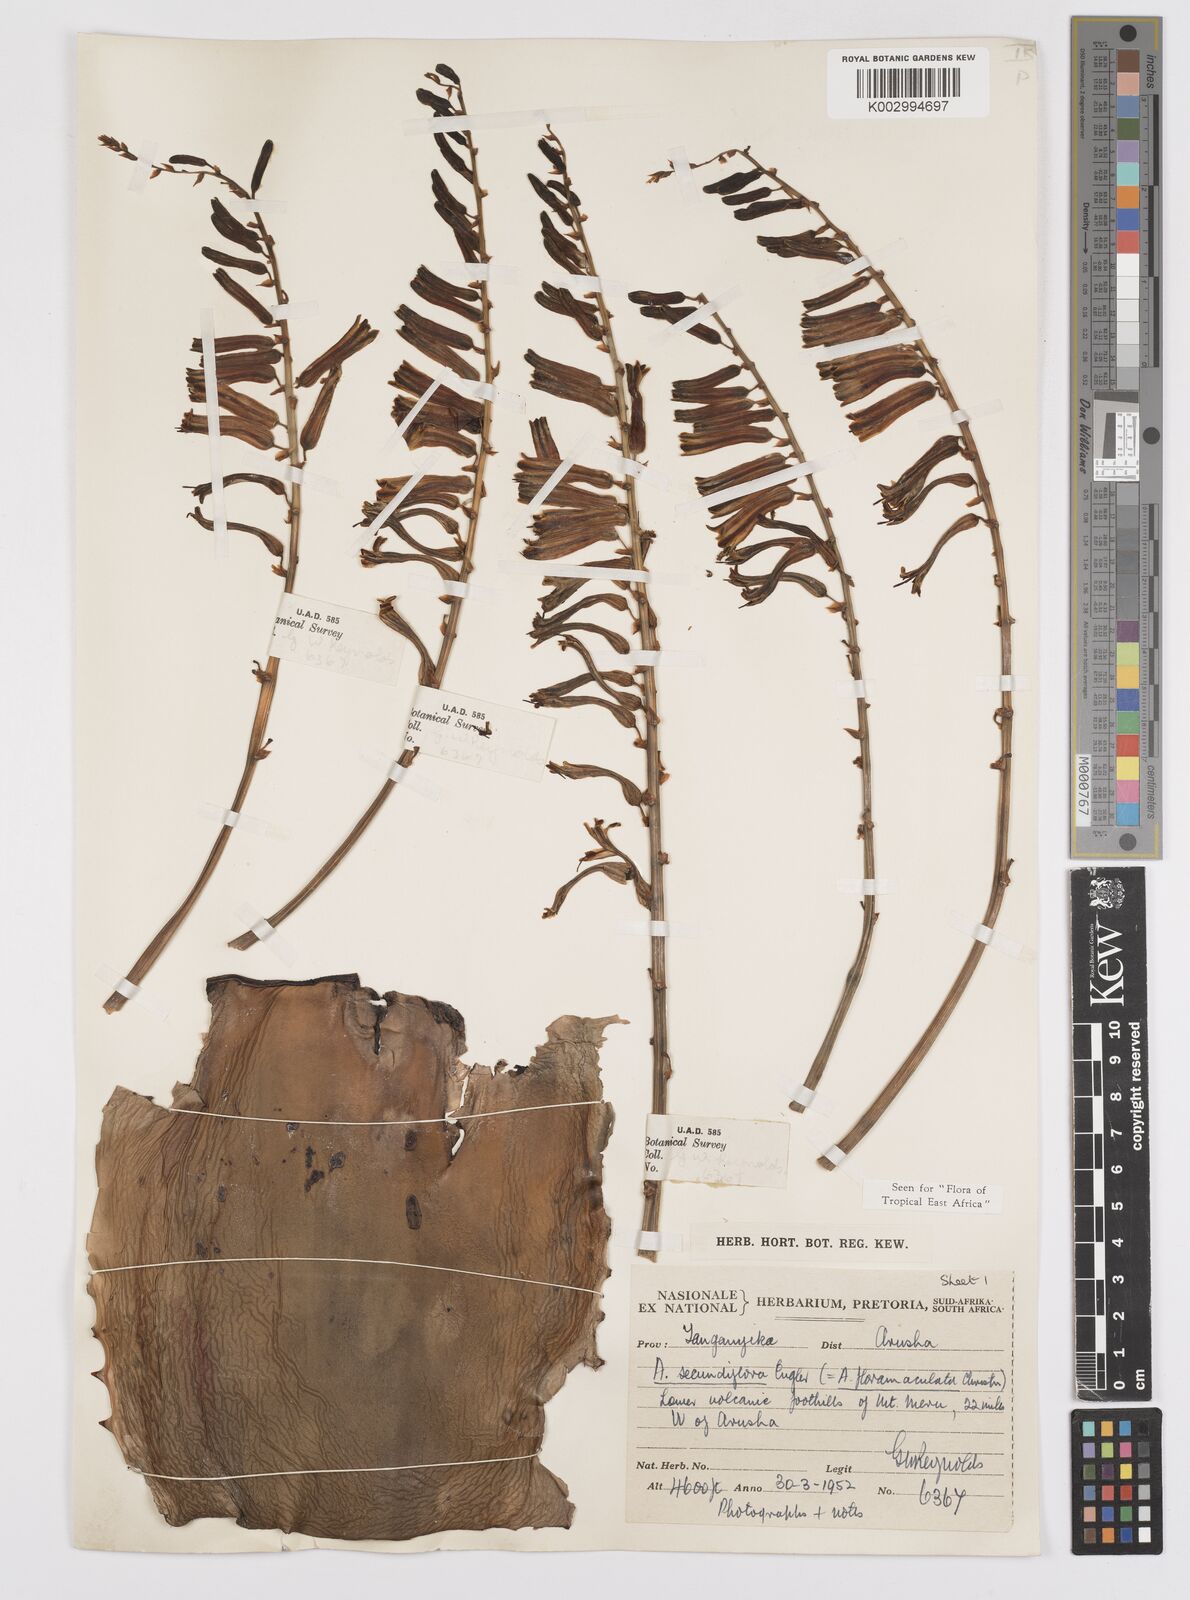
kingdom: Plantae
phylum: Tracheophyta
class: Liliopsida
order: Asparagales
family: Asphodelaceae
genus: Aloe
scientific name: Aloe secundiflora
